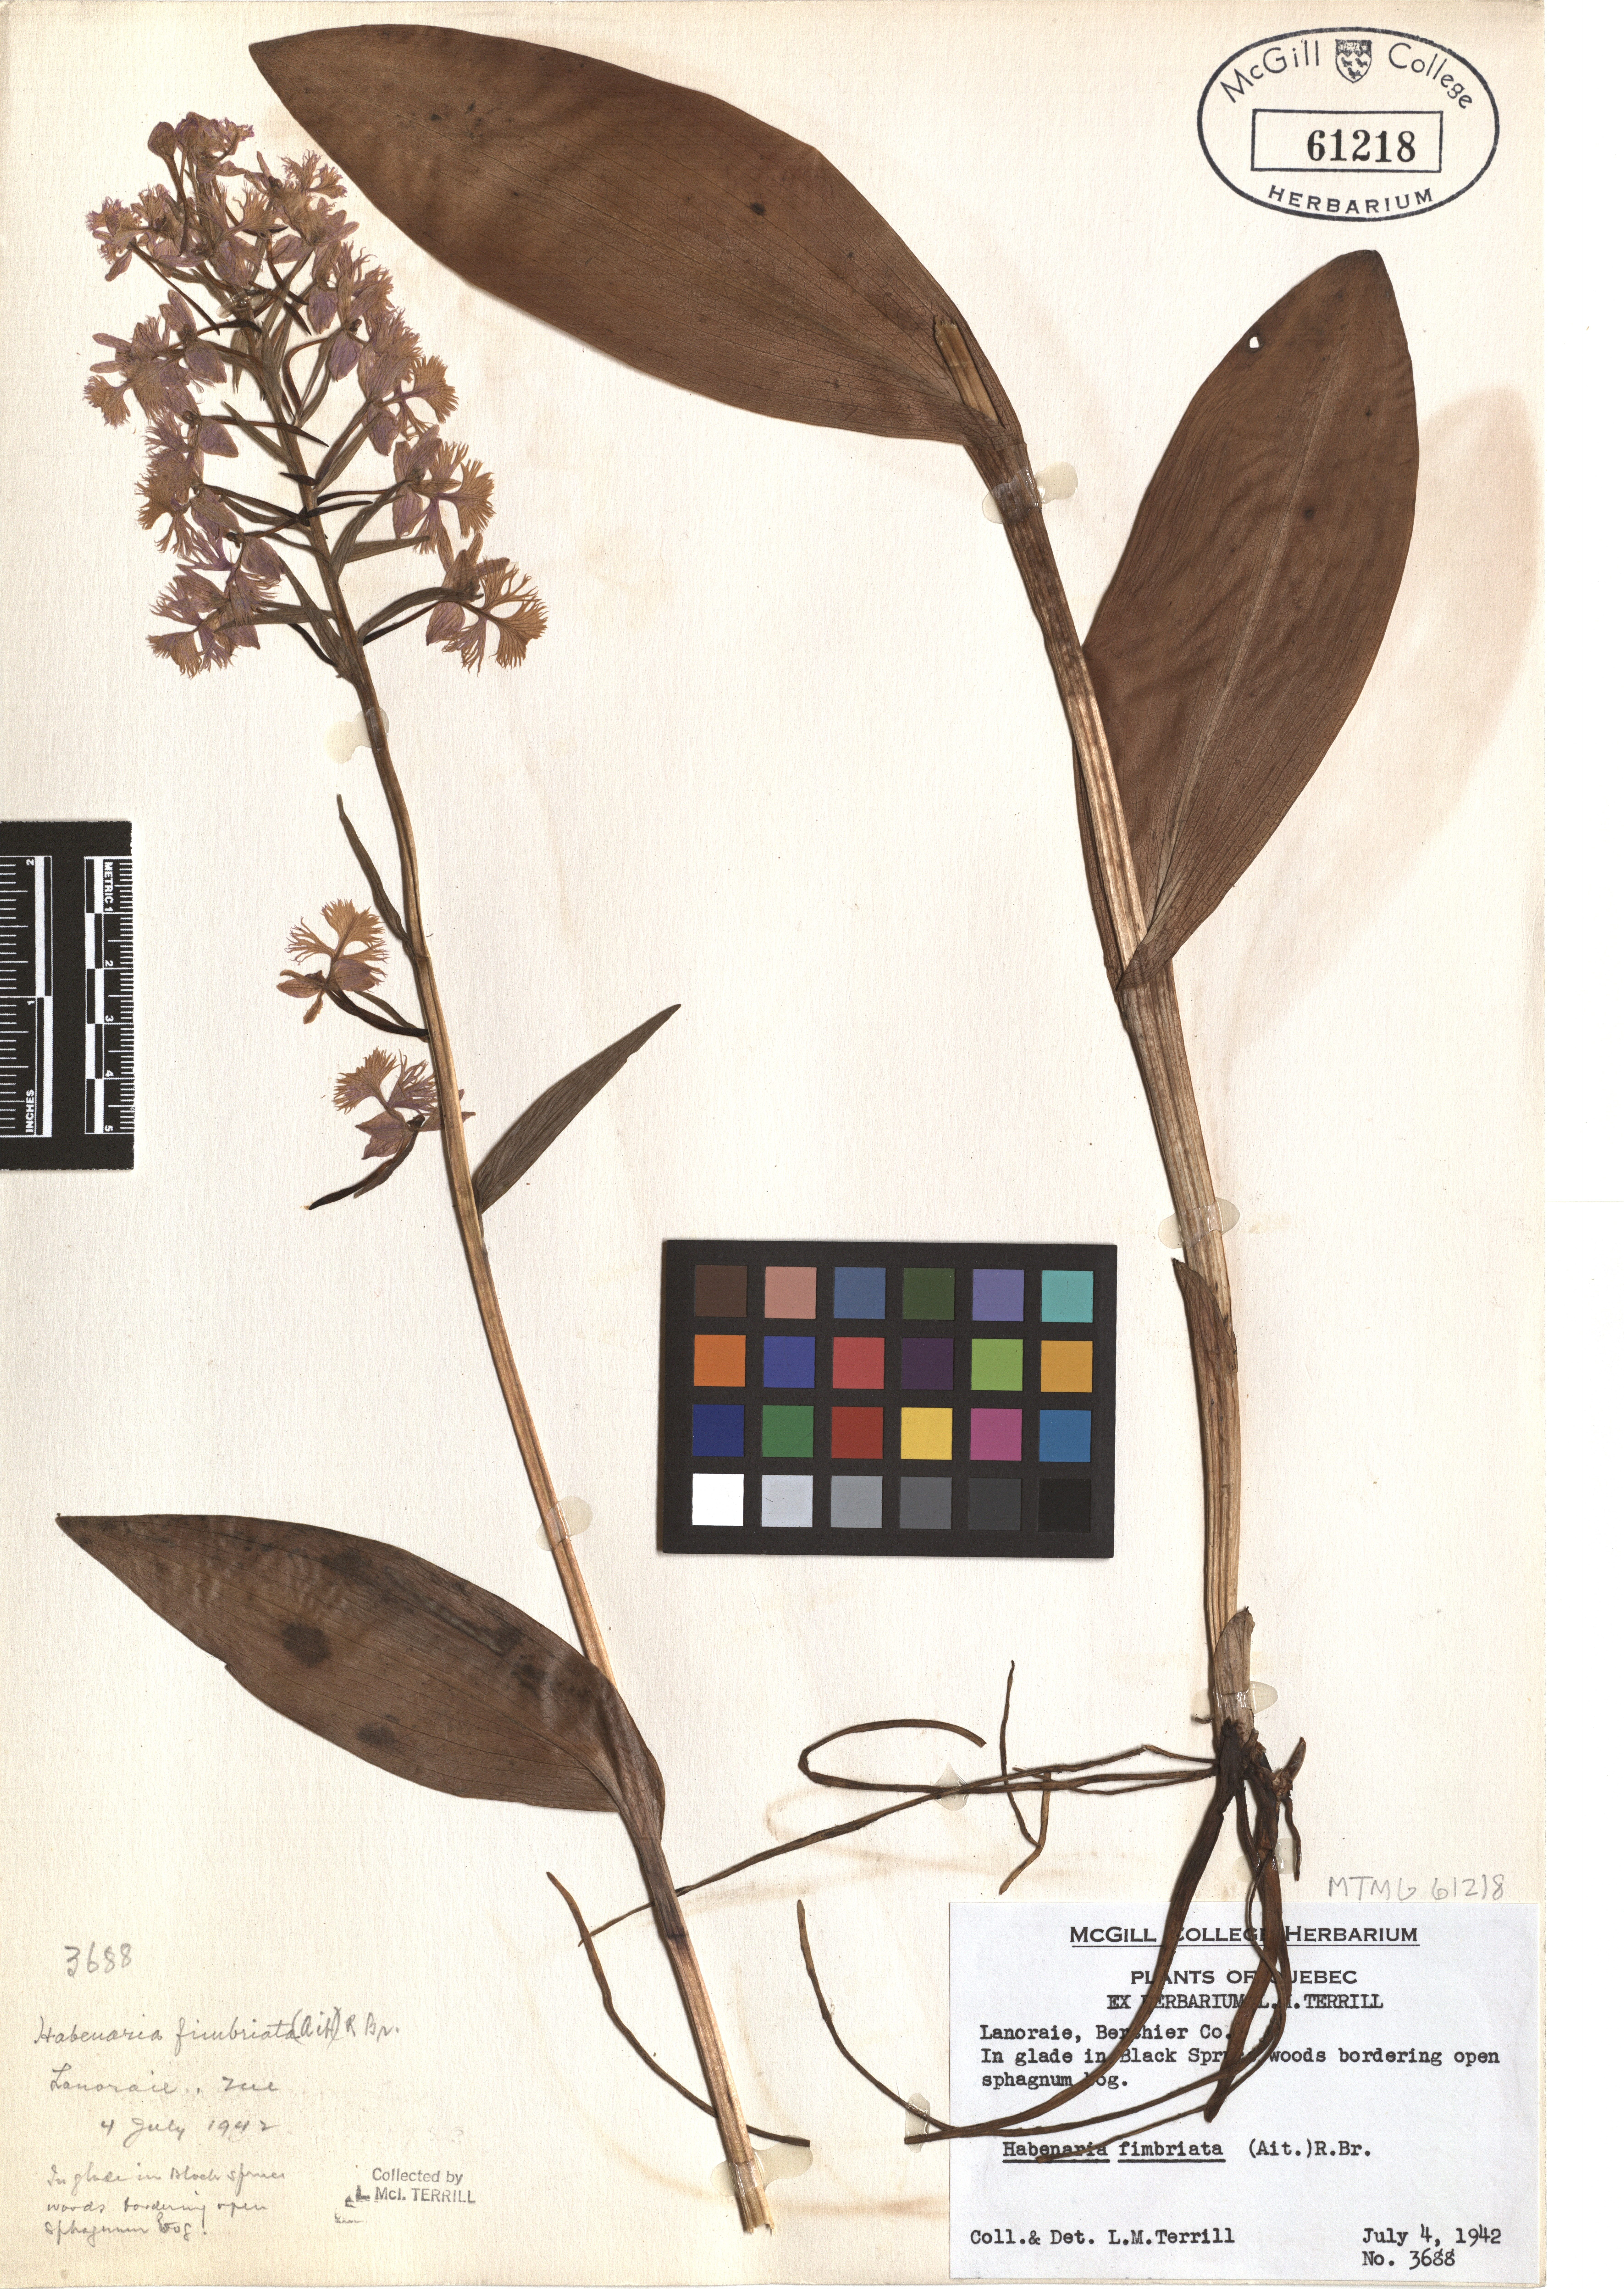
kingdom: Plantae
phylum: Tracheophyta
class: Liliopsida
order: Asparagales
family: Orchidaceae
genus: Platanthera
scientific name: Platanthera grandiflora
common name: Greater purple fringed orchid
